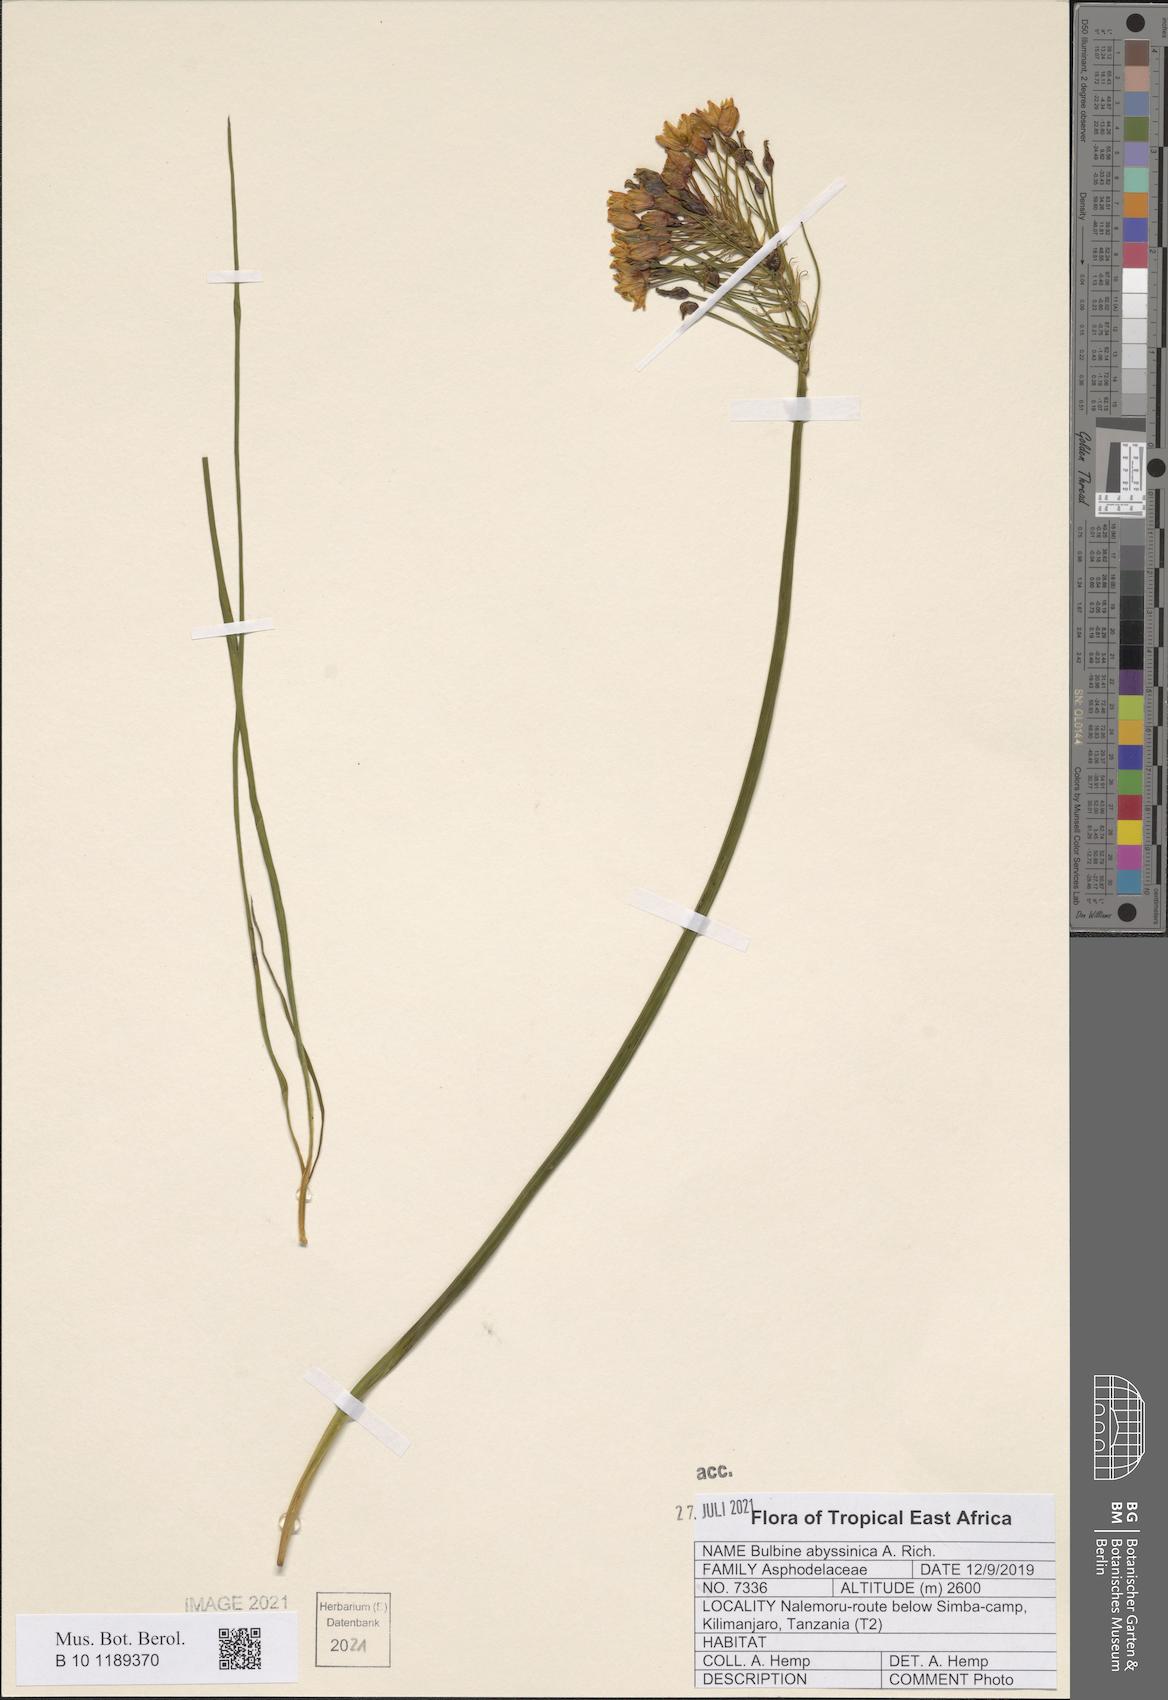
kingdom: Plantae
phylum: Tracheophyta
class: Liliopsida
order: Asparagales
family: Asphodelaceae
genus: Bulbine
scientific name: Bulbine abyssinica
